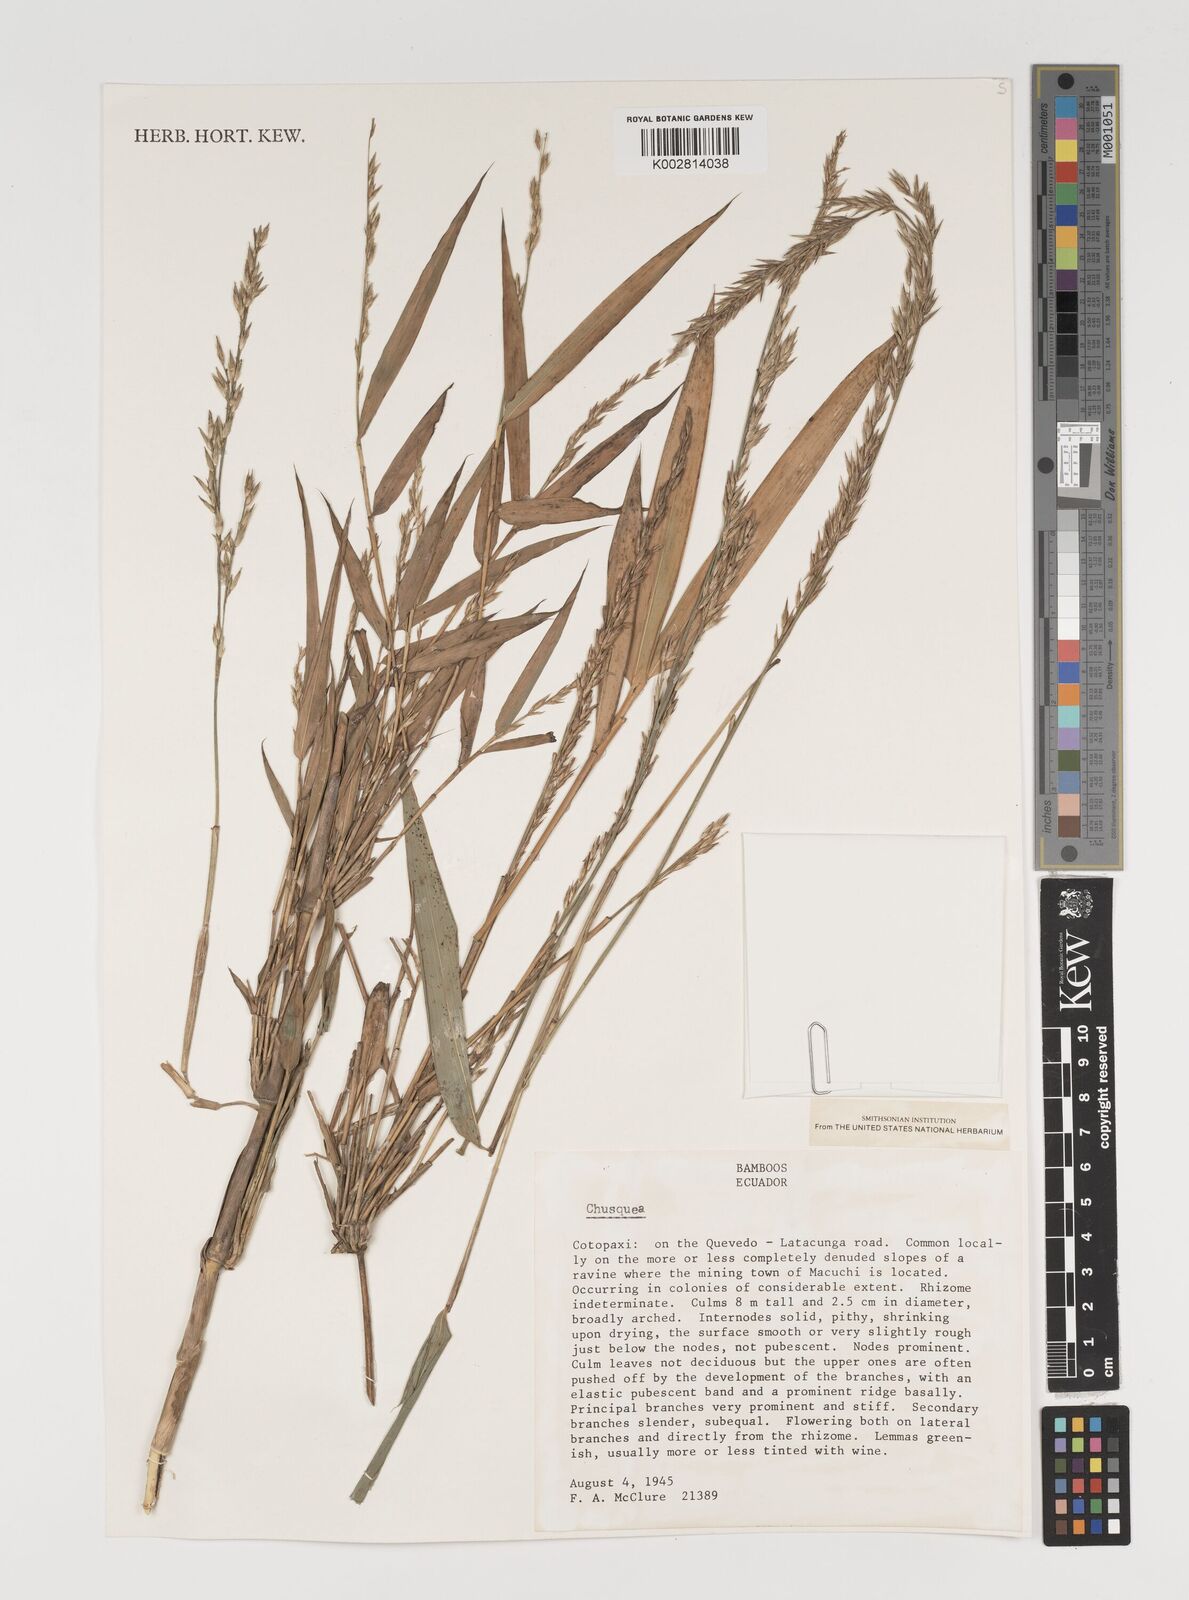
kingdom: Plantae
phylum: Tracheophyta
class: Liliopsida
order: Poales
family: Poaceae
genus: Chusquea
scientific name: Chusquea
